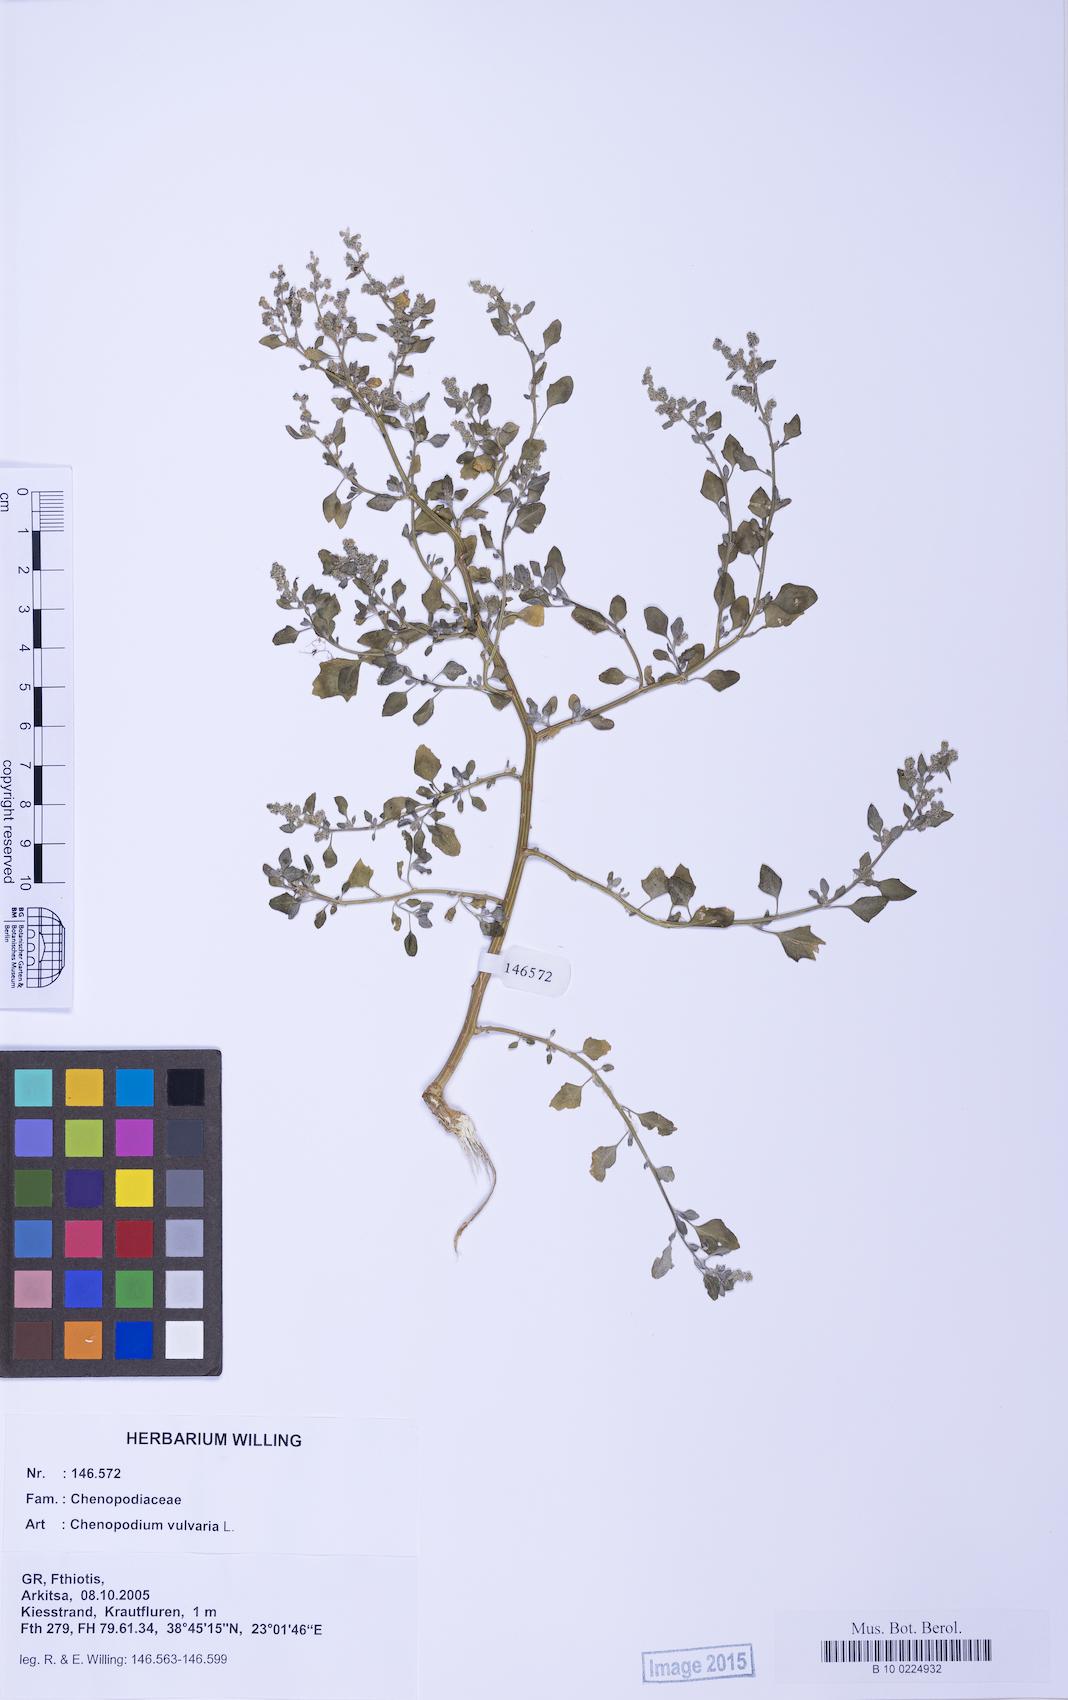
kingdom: Plantae
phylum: Tracheophyta
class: Magnoliopsida
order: Caryophyllales
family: Amaranthaceae
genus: Chenopodium
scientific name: Chenopodium vulvaria
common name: Stinking goosefoot
